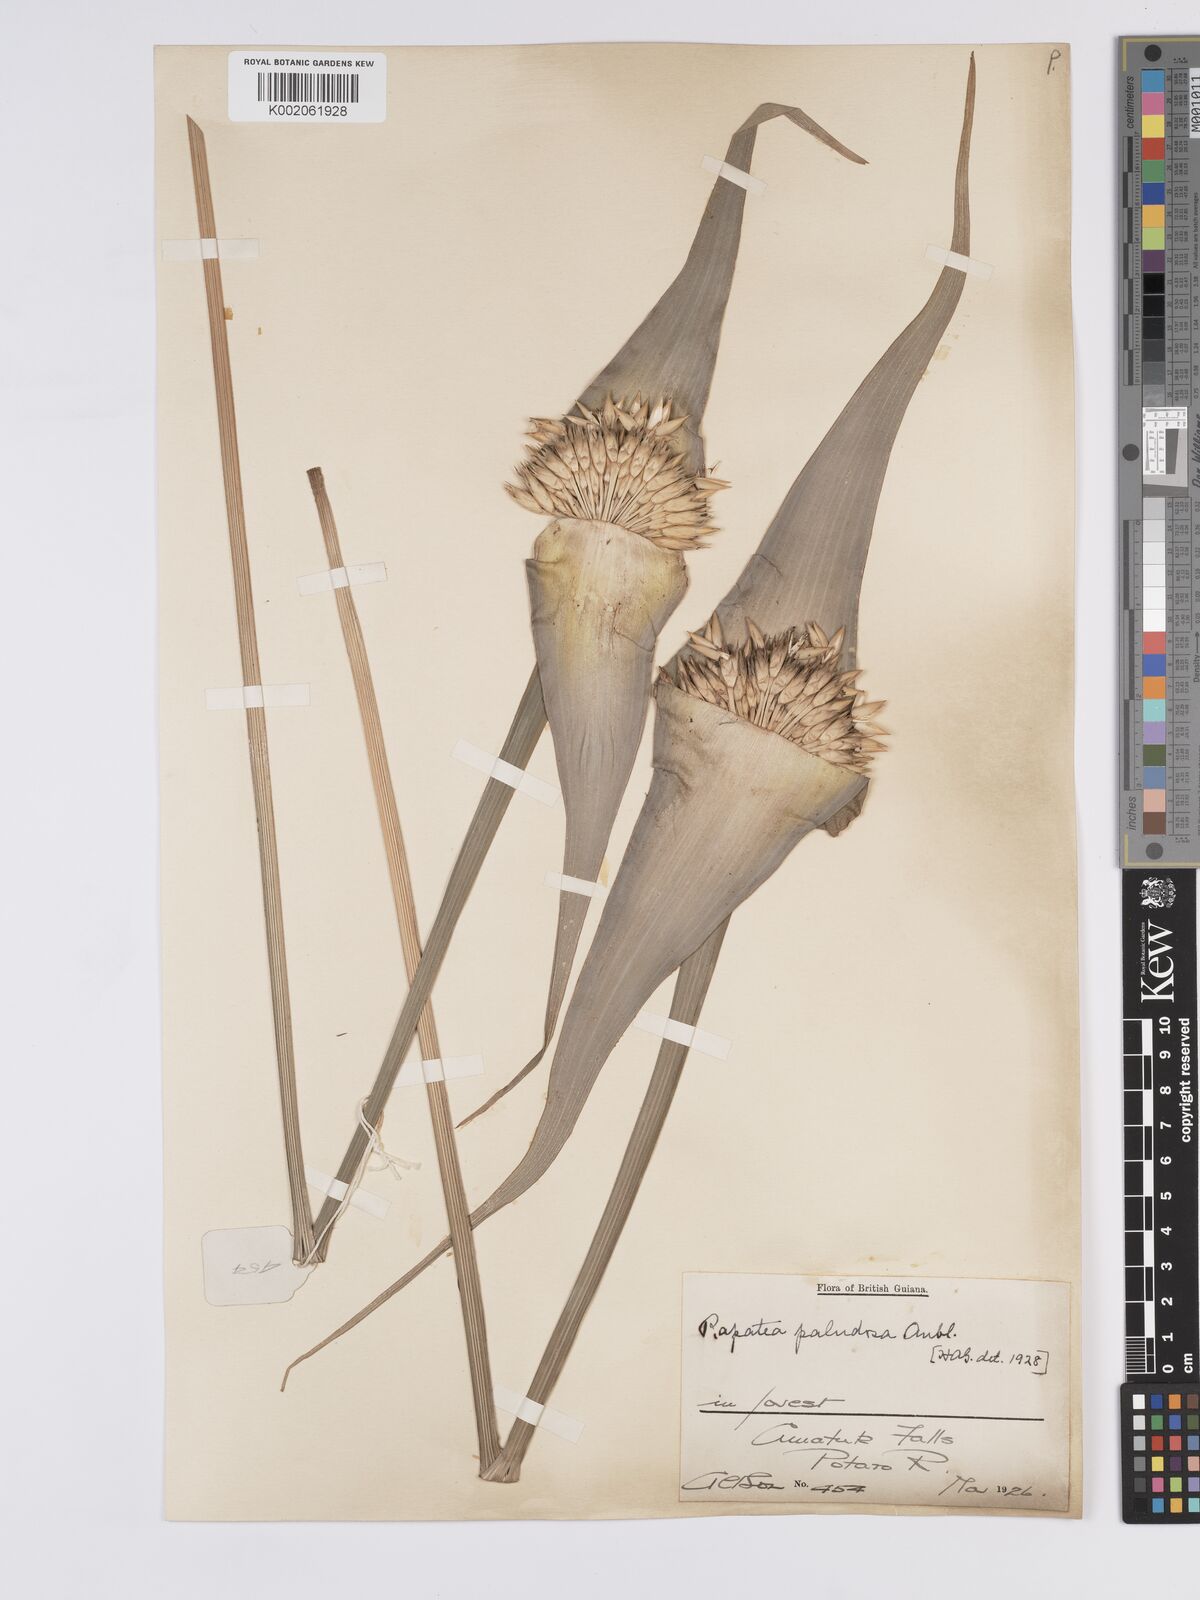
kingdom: Plantae
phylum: Tracheophyta
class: Liliopsida
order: Poales
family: Rapateaceae
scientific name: Rapateaceae
